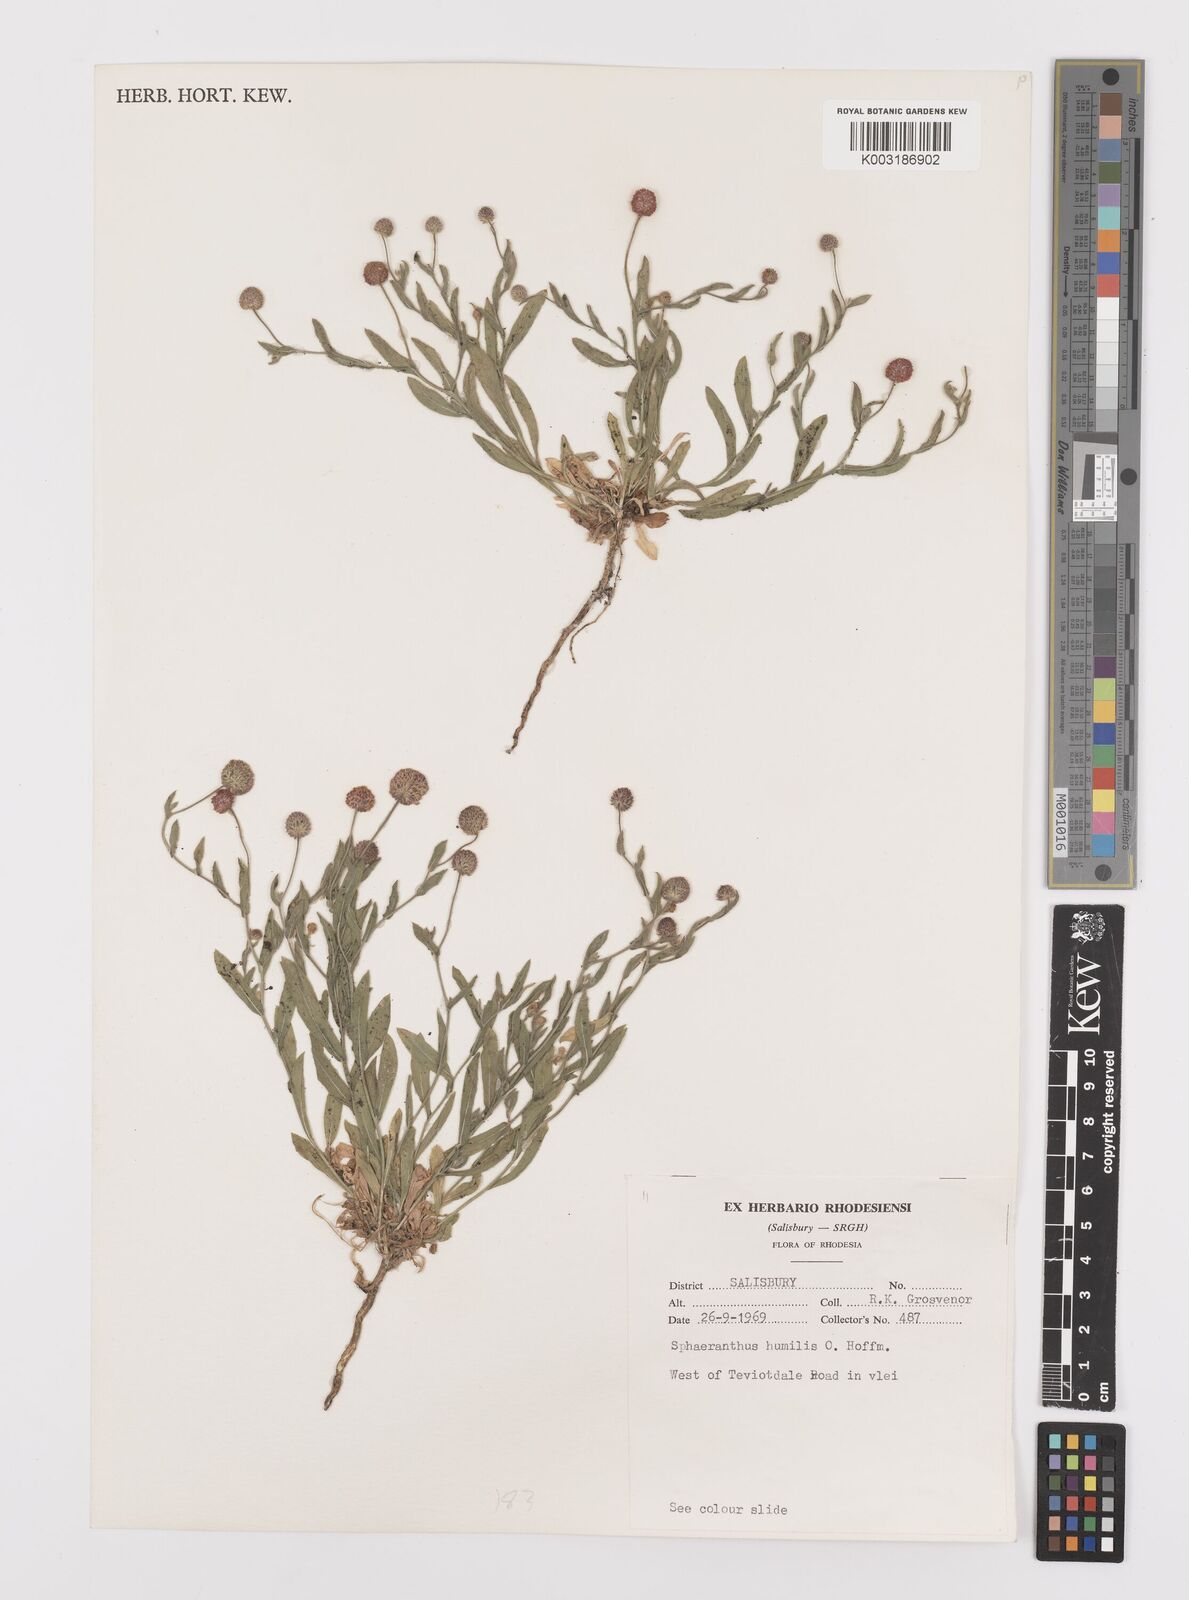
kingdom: Plantae
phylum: Tracheophyta
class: Magnoliopsida
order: Asterales
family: Asteraceae
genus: Sphaeranthus
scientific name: Sphaeranthus flexuosus
